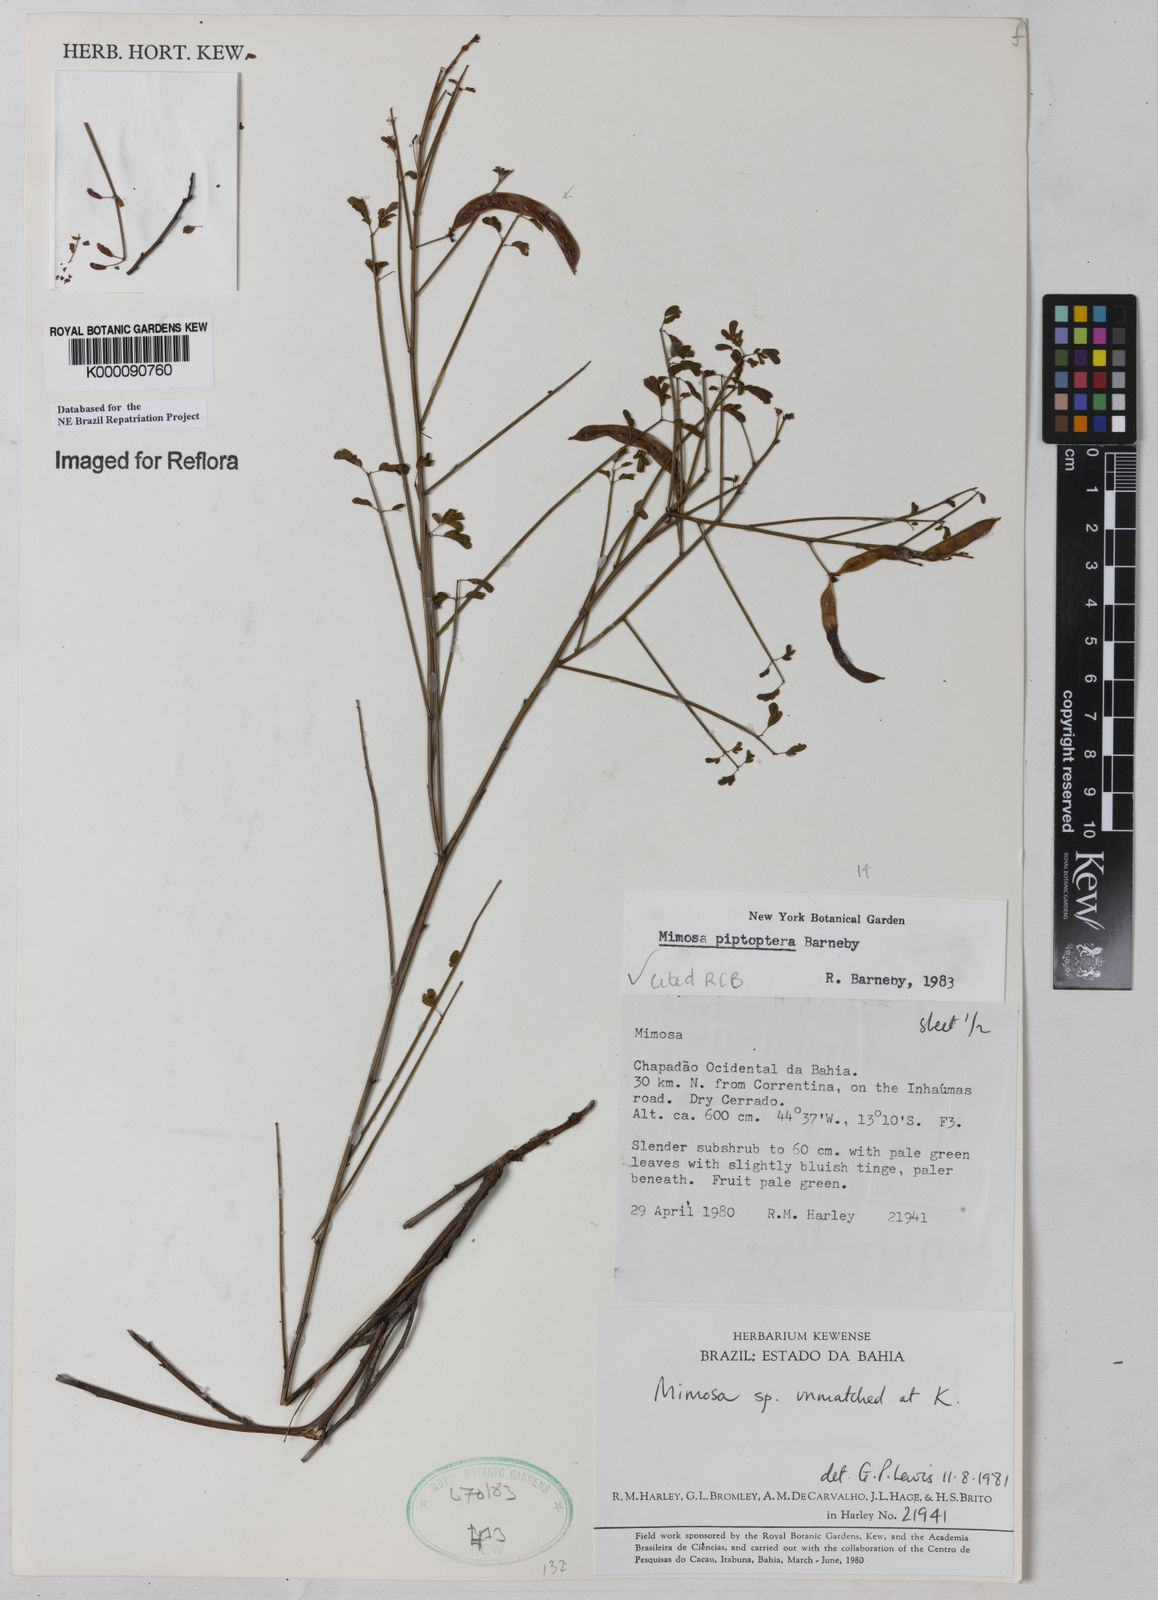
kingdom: Plantae
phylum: Tracheophyta
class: Magnoliopsida
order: Fabales
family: Fabaceae
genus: Mimosa
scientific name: Mimosa piptoptera
